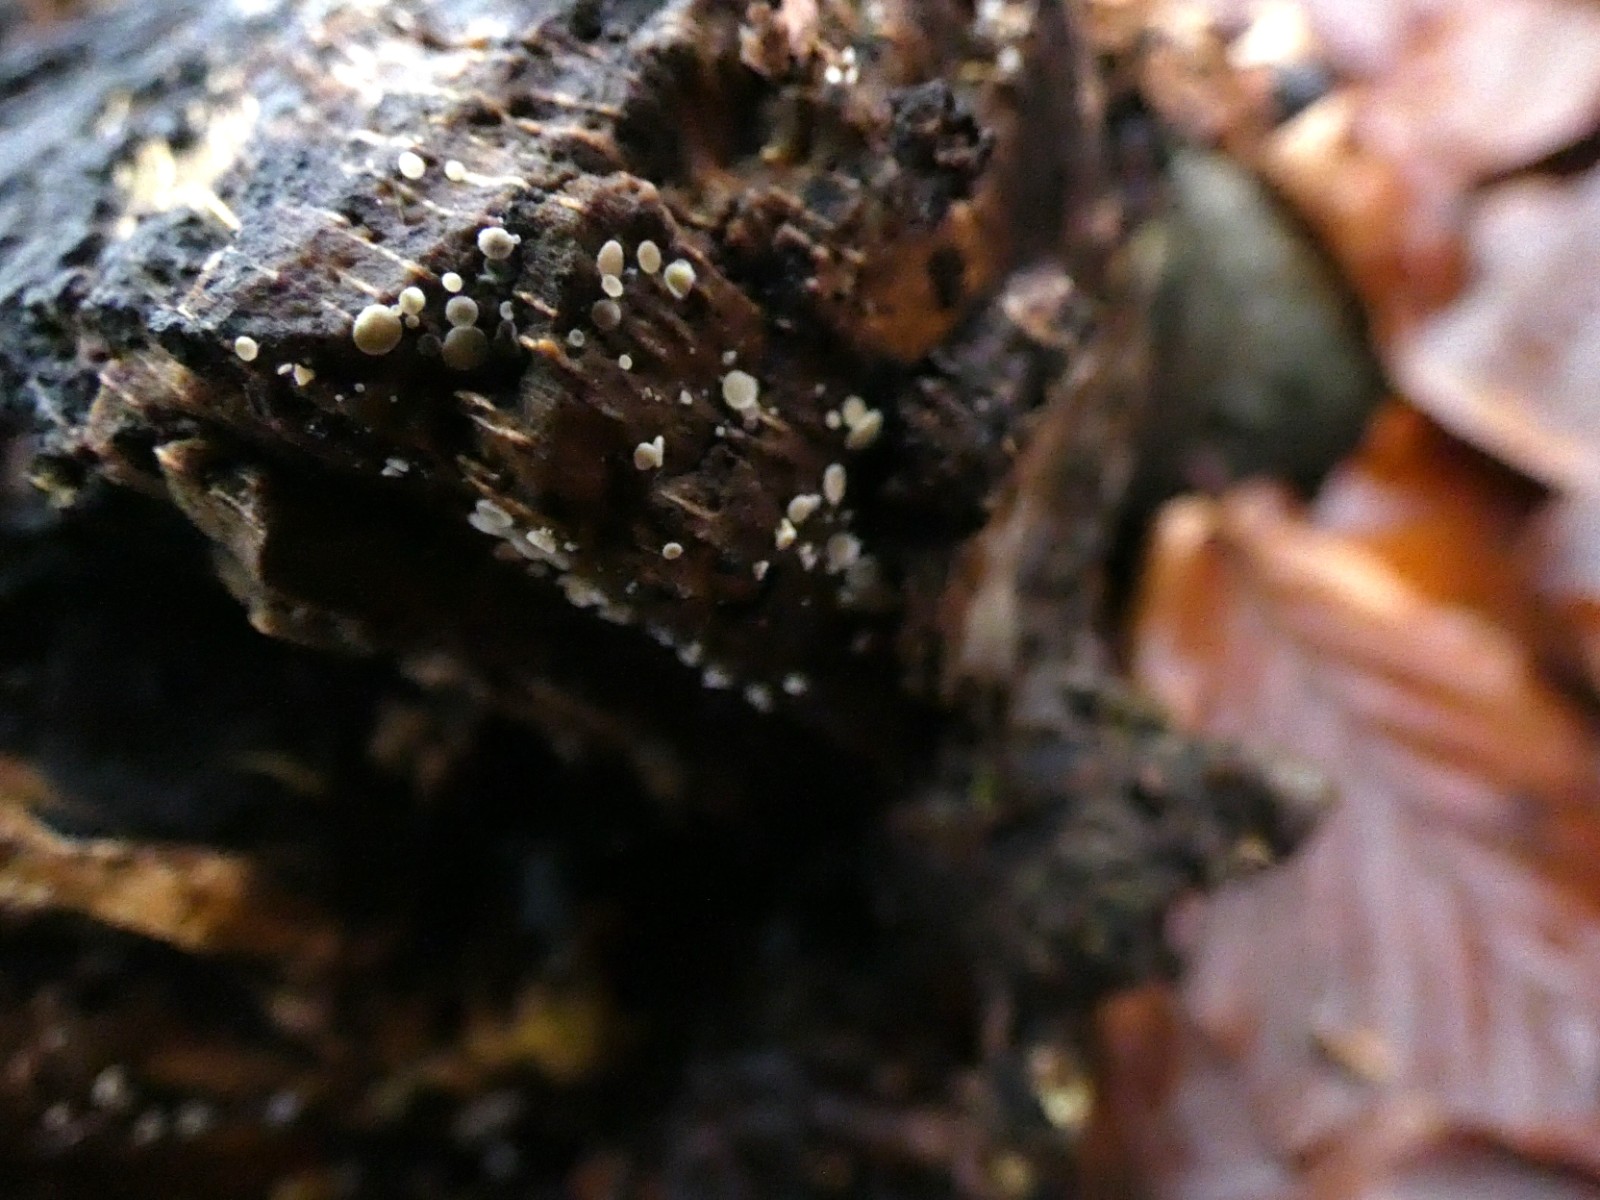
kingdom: Fungi
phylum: Ascomycota
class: Leotiomycetes
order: Helotiales
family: Lachnaceae
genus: Lachnum
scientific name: Lachnum impudicum
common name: vinter-frynseskive
